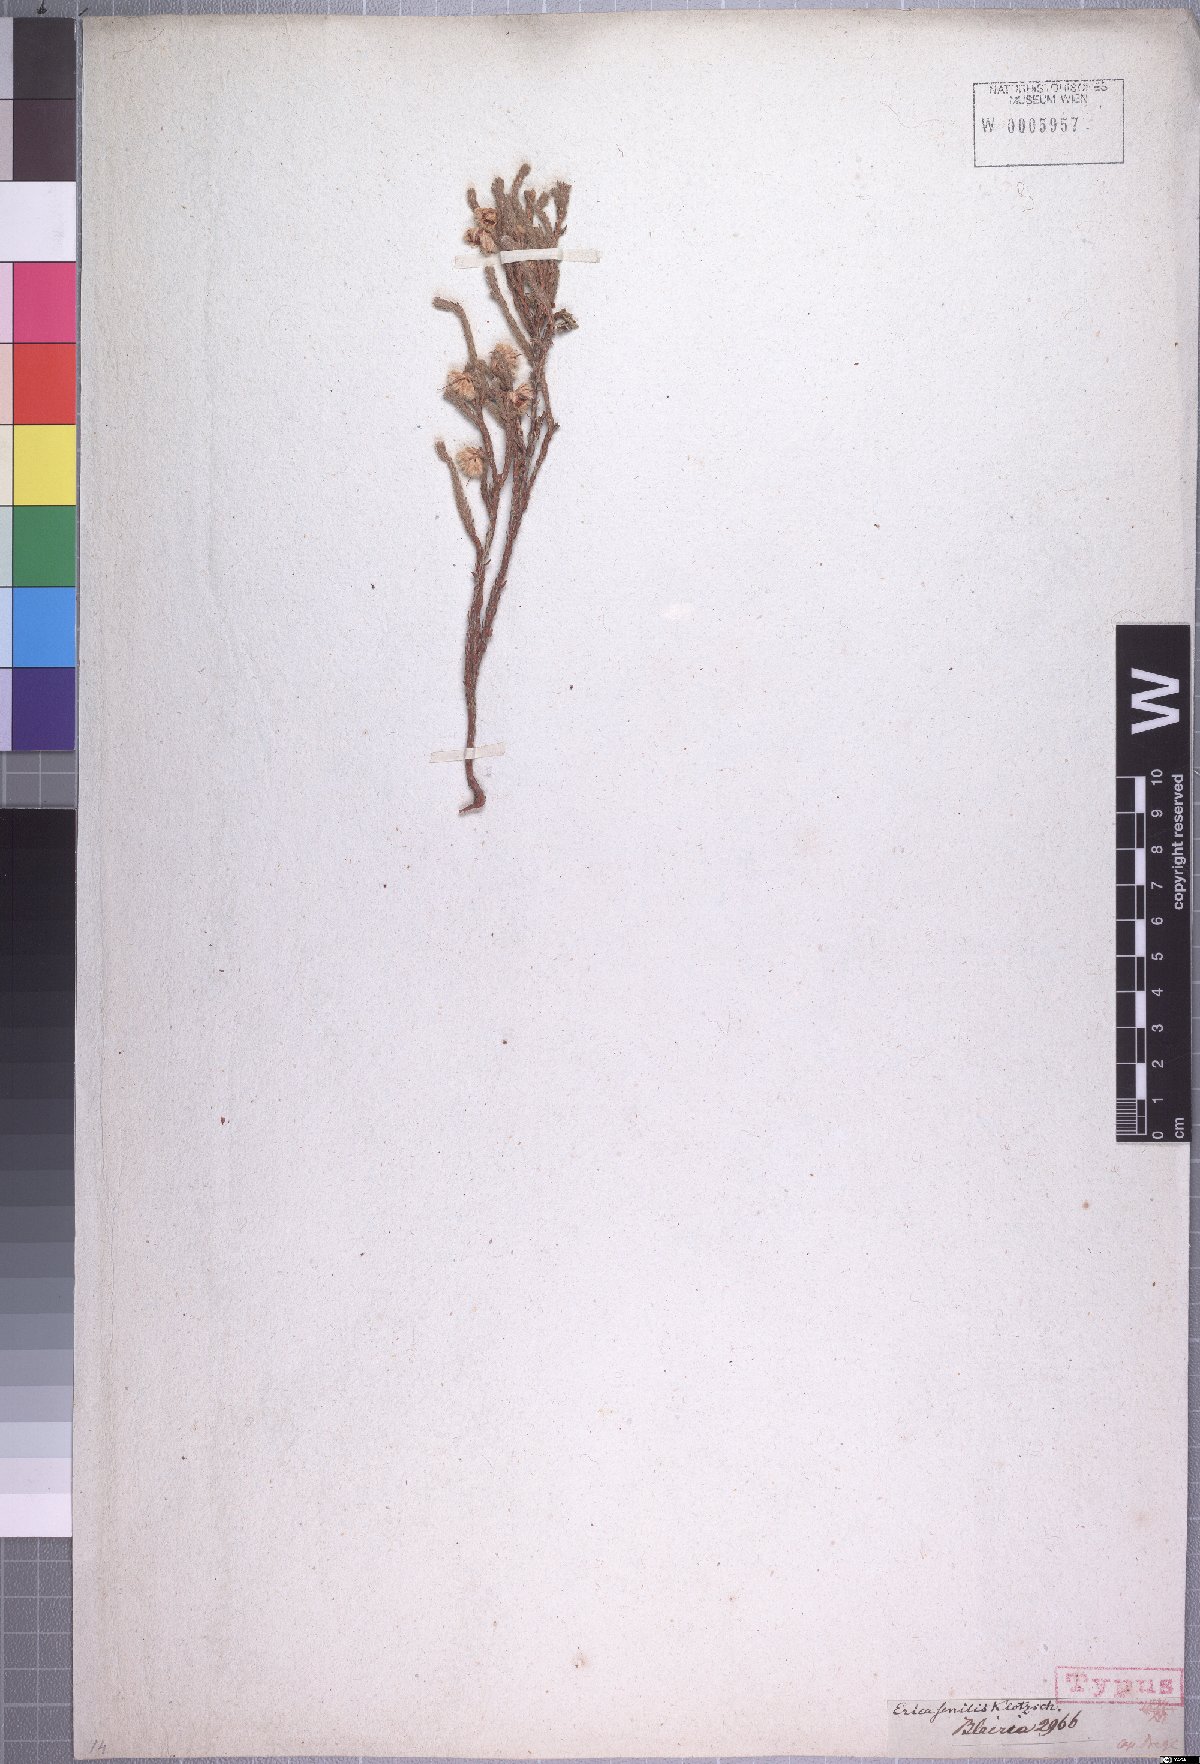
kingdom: Plantae
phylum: Tracheophyta
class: Magnoliopsida
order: Ericales
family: Ericaceae
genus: Erica
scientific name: Erica senilis
